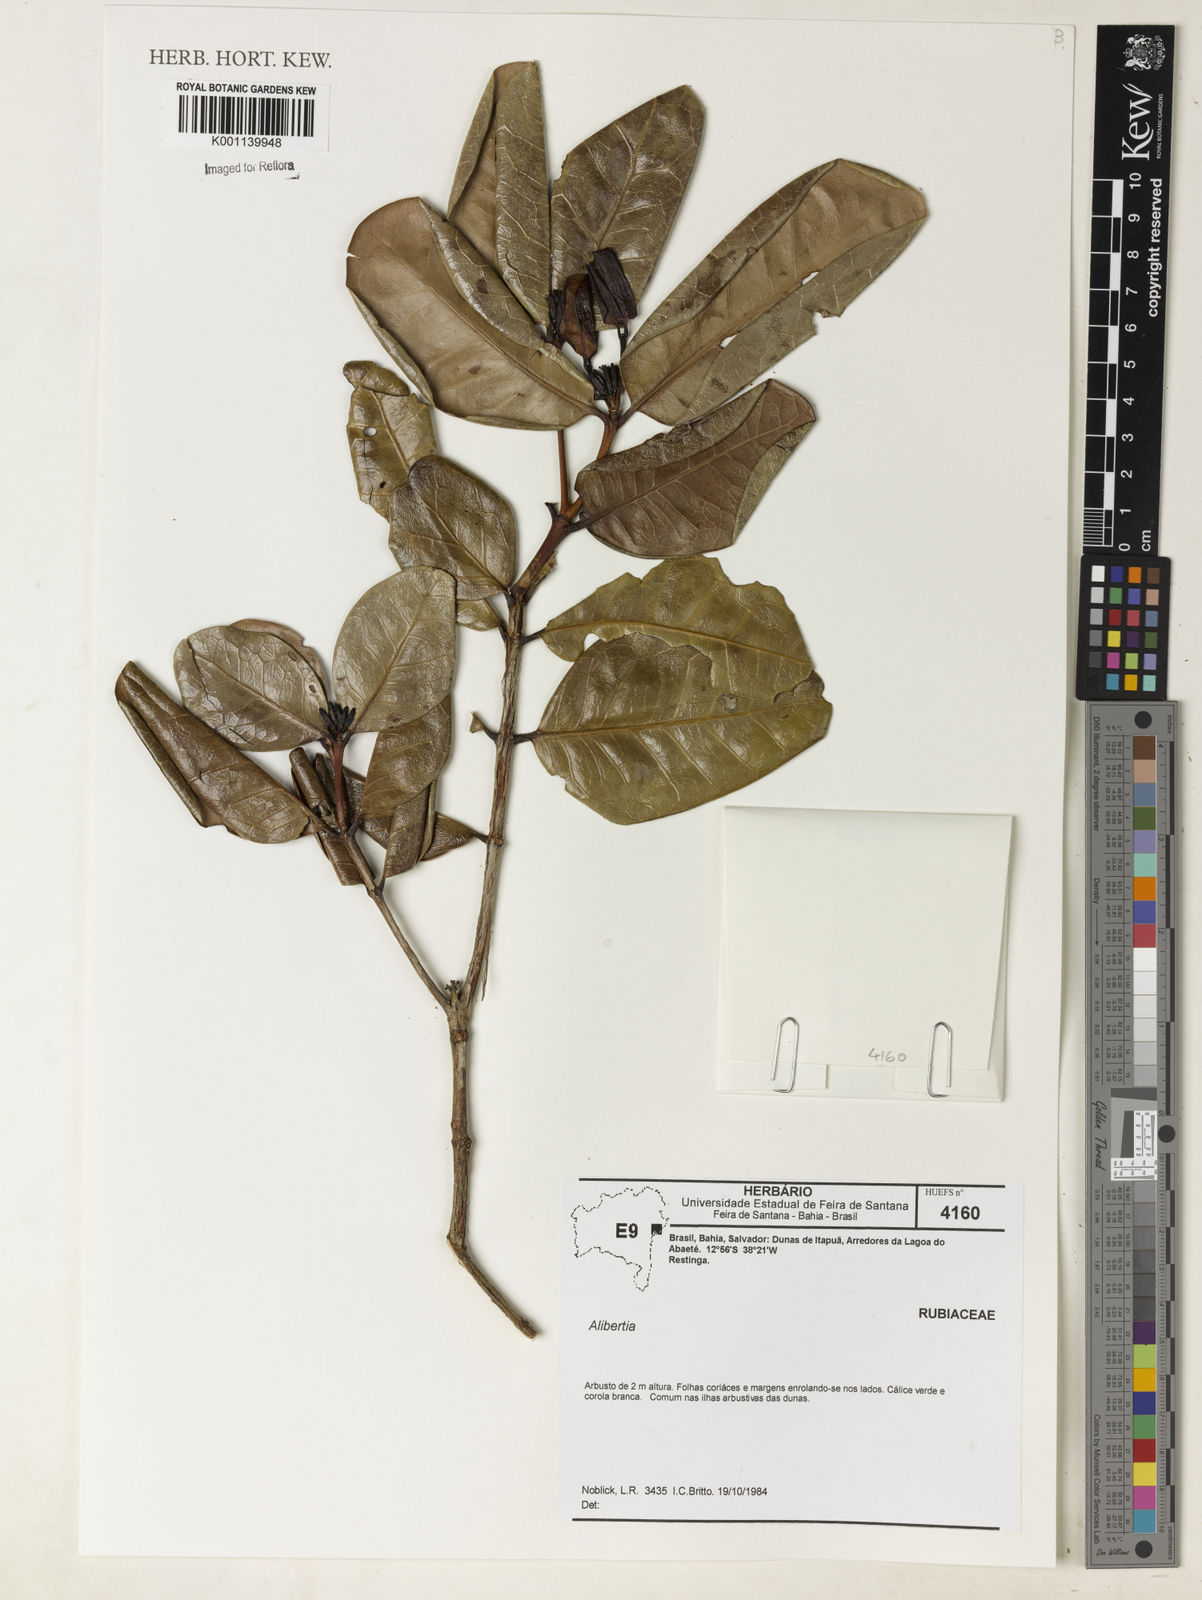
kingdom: Plantae
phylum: Tracheophyta
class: Magnoliopsida
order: Gentianales
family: Rubiaceae
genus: Alibertia
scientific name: Alibertia
